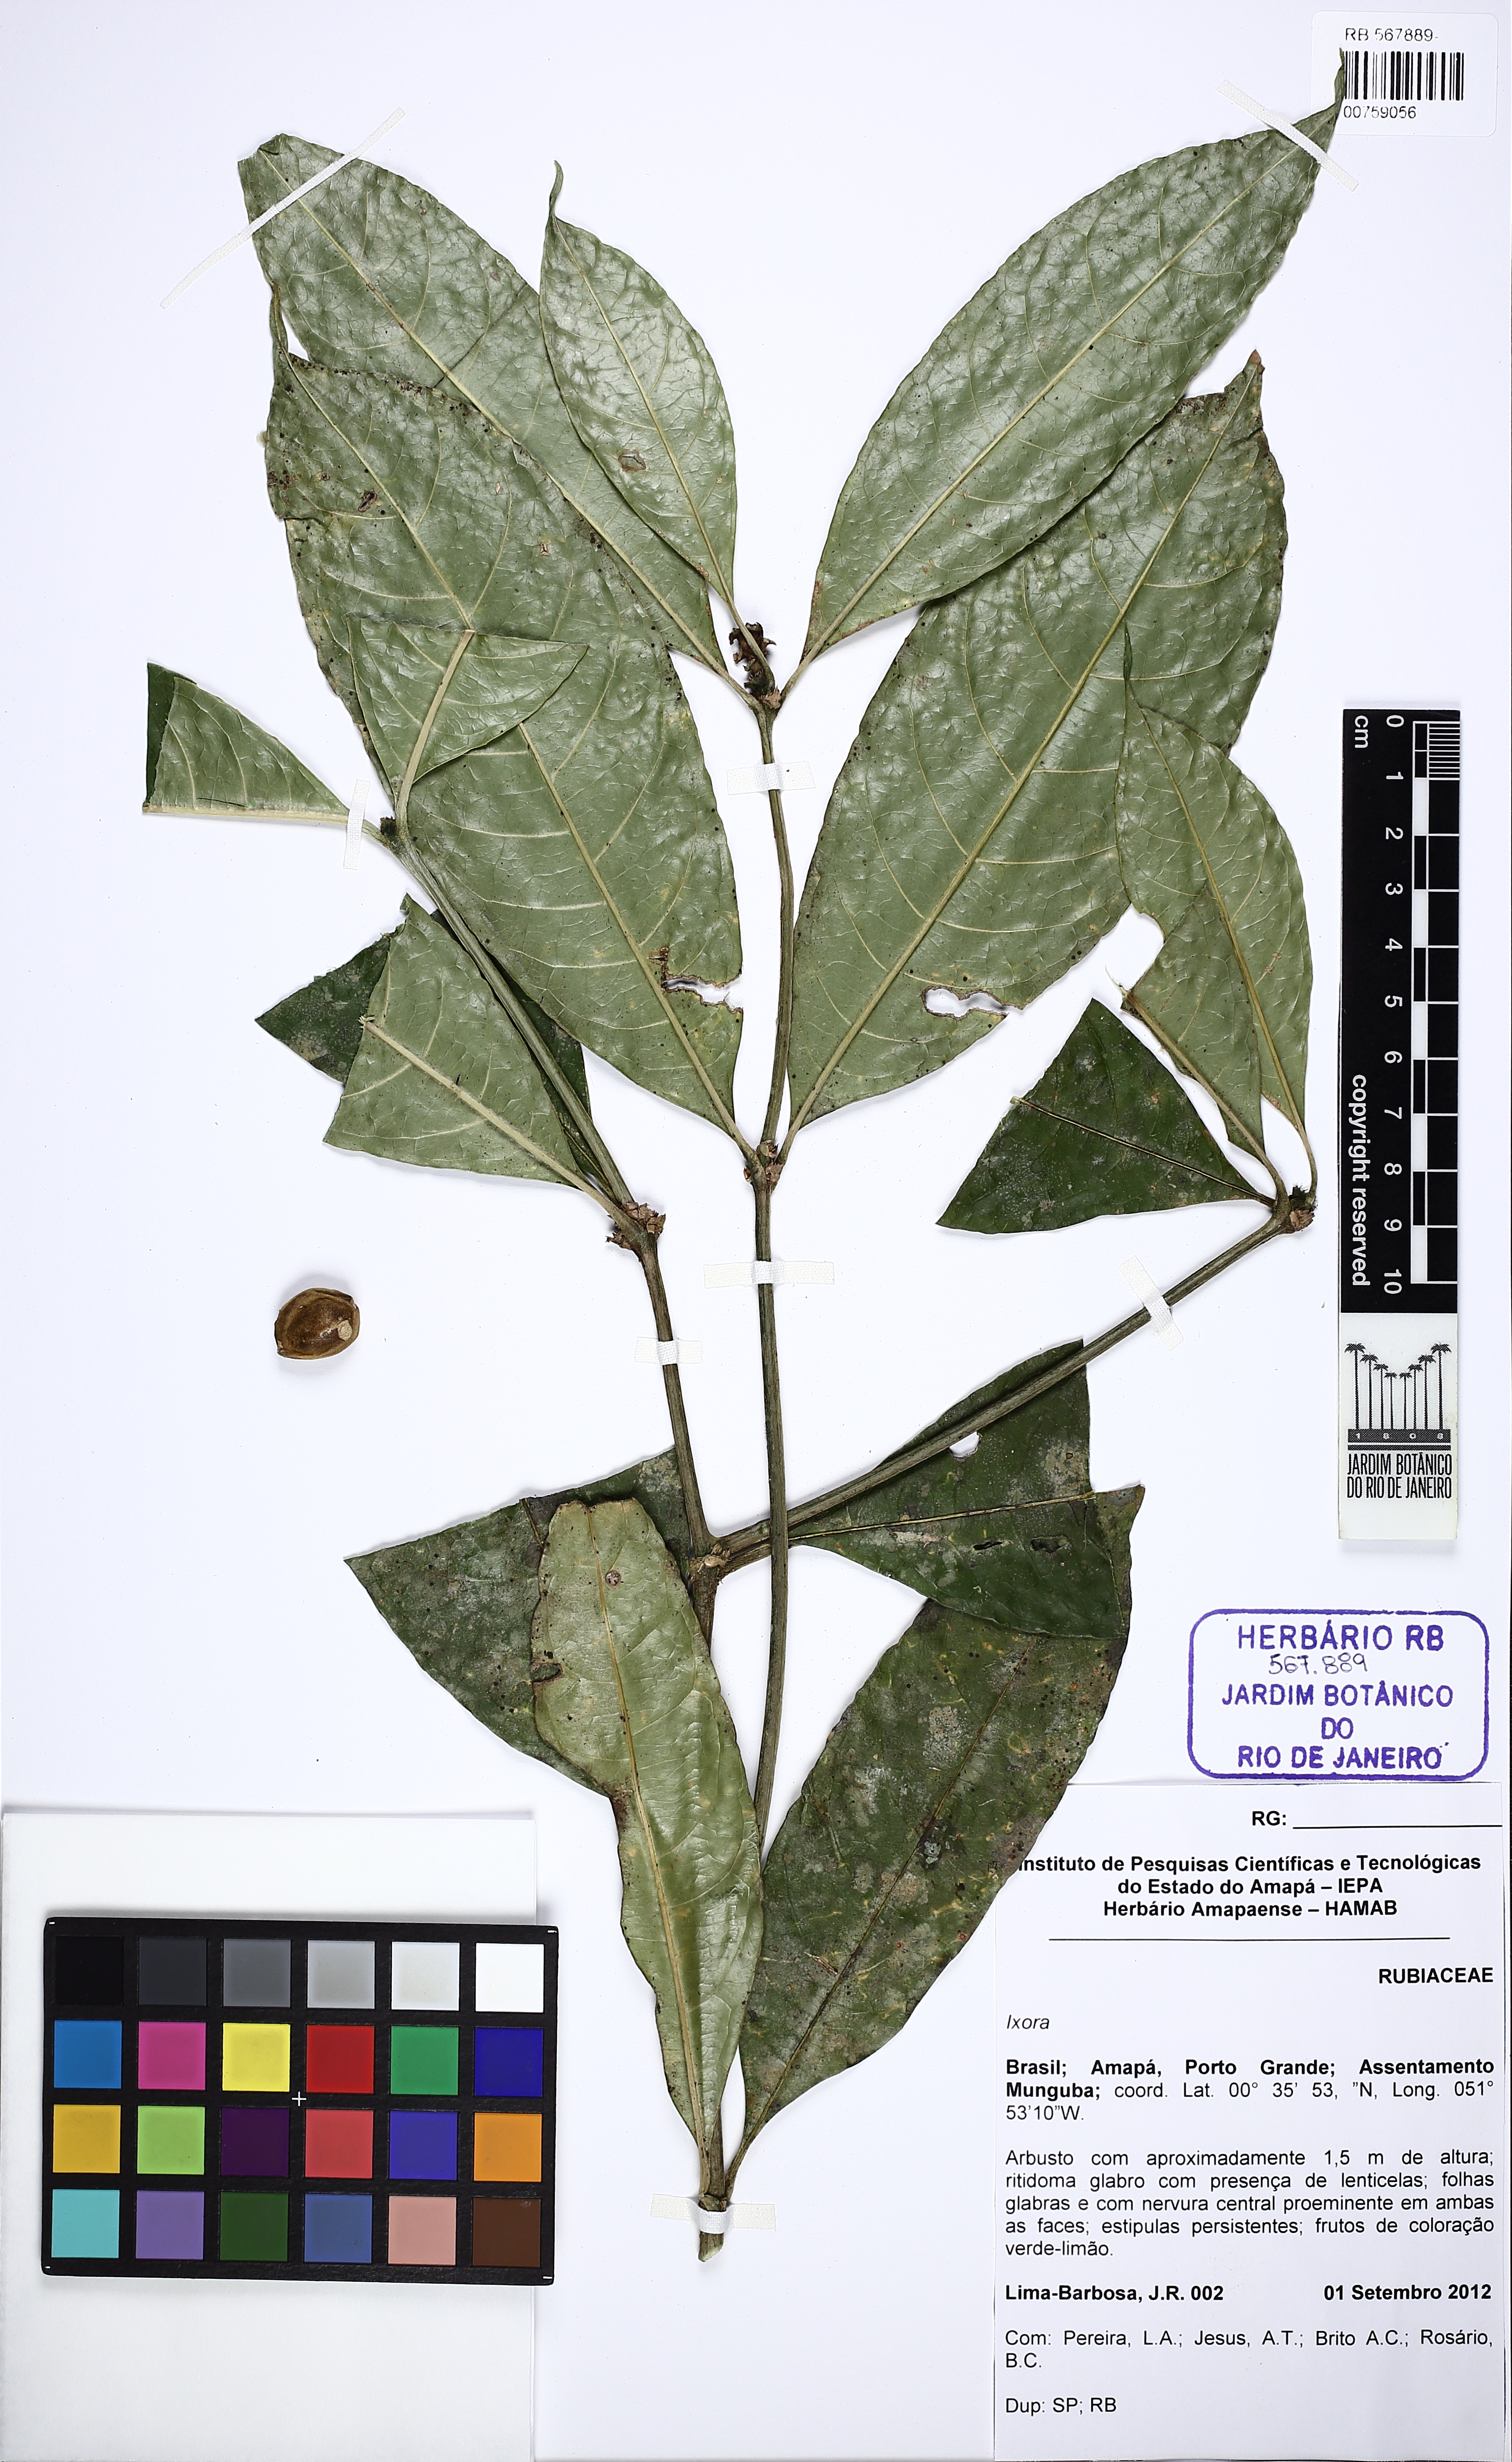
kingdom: Plantae
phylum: Tracheophyta
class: Magnoliopsida
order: Gentianales
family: Rubiaceae
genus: Rudgea
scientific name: Rudgea
